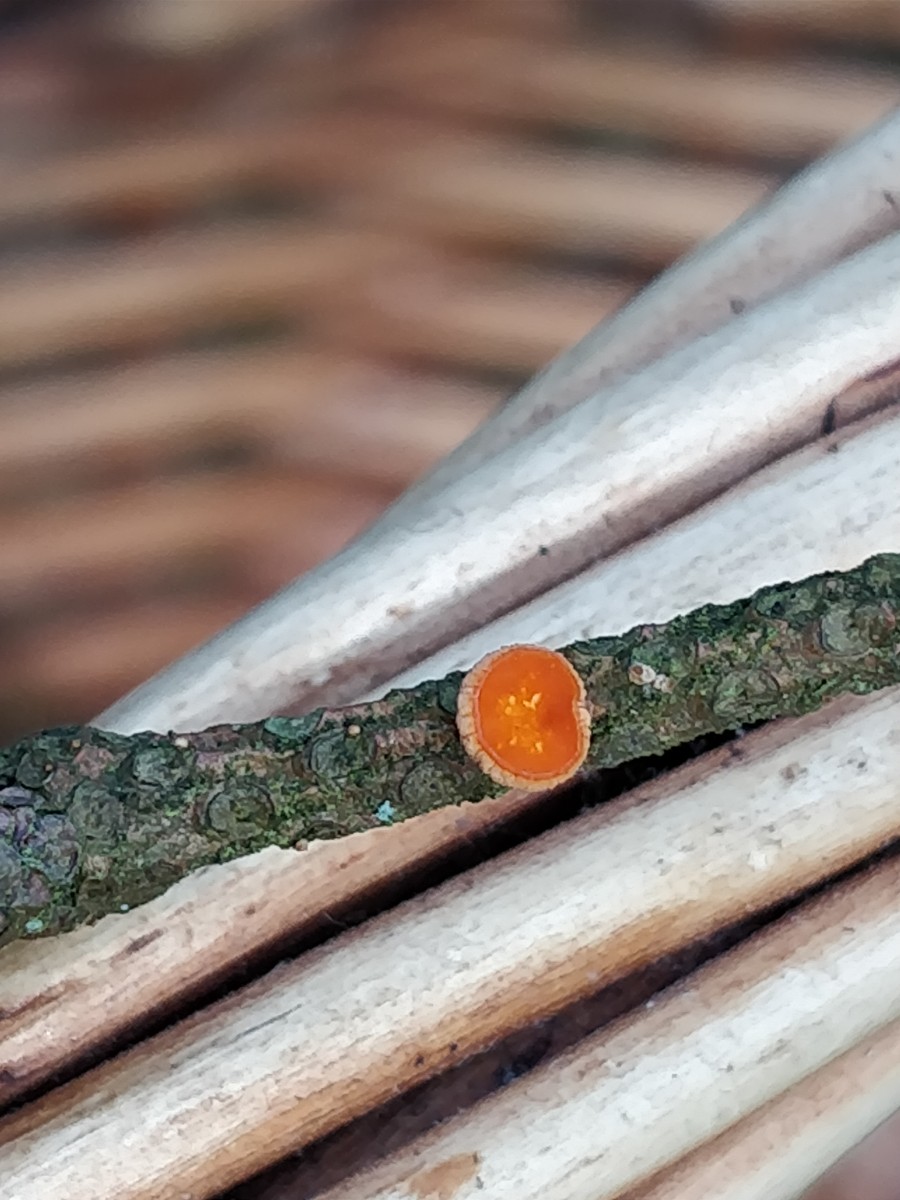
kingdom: Fungi
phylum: Ascomycota
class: Pezizomycetes
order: Pezizales
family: Sarcoscyphaceae
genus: Pithya
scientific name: Pithya vulgaris
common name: stor dukatbæger
